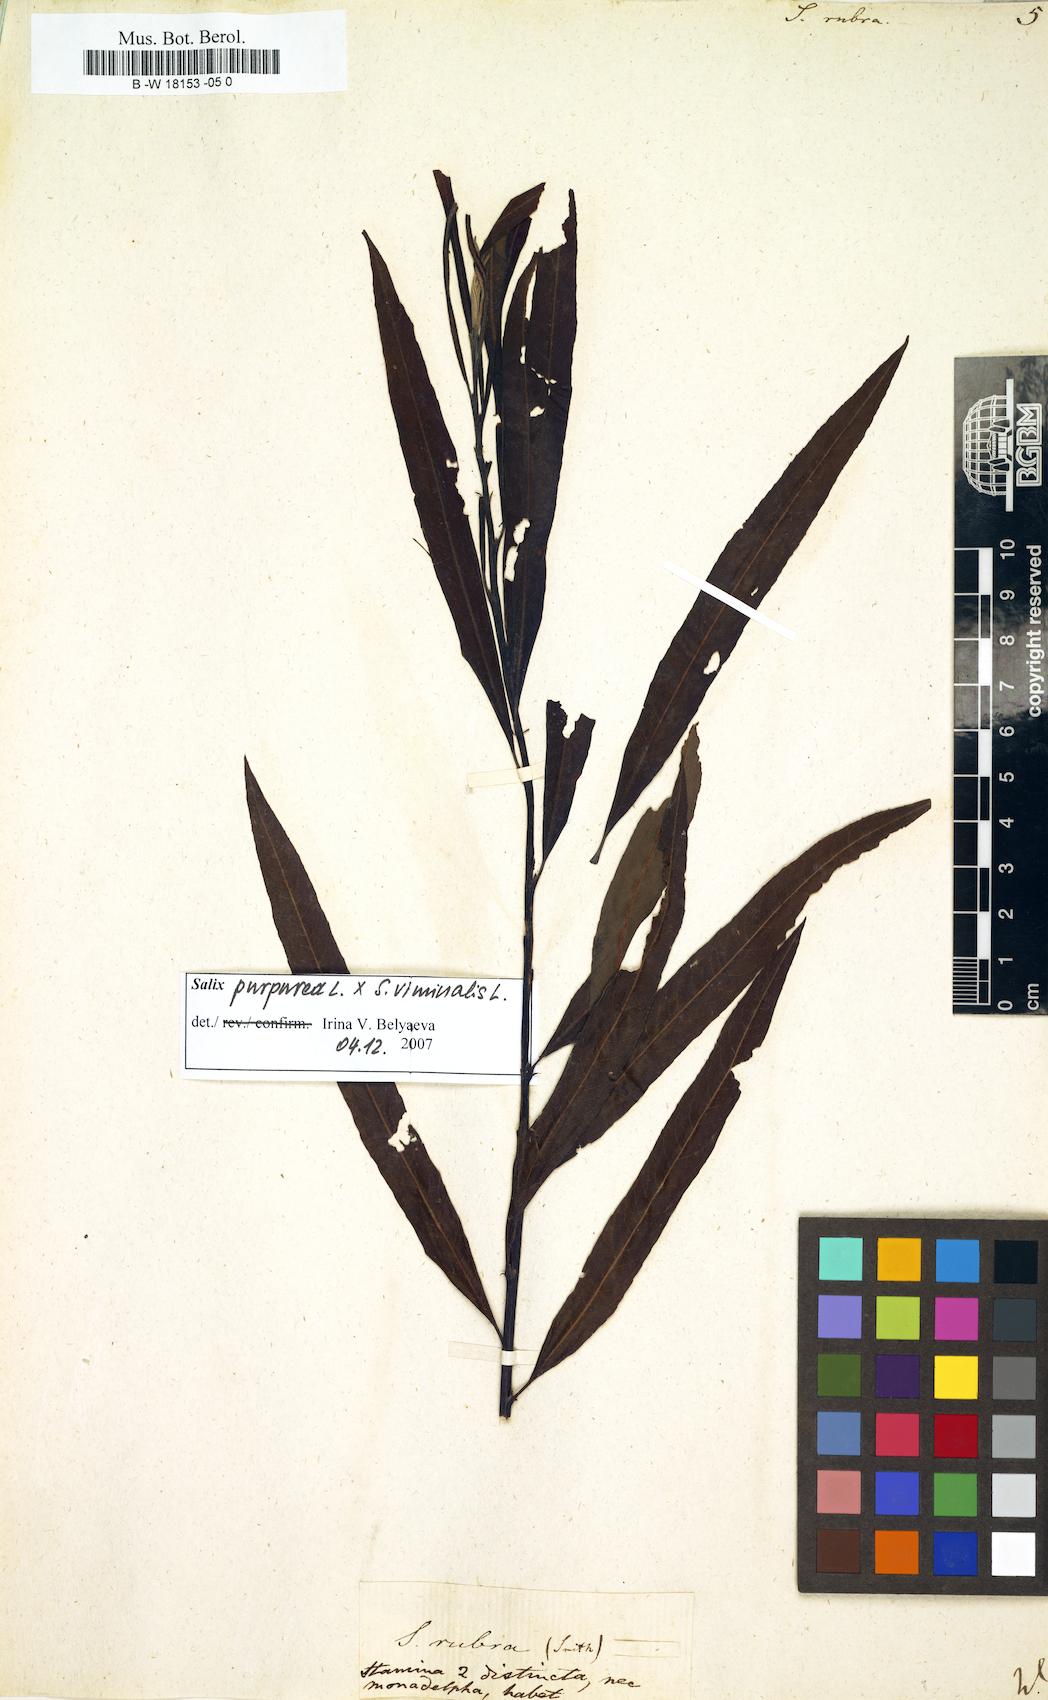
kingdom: Plantae
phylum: Tracheophyta
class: Magnoliopsida
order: Malpighiales
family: Salicaceae
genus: Salix
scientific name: Salix rubra
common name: Green-leaf willow
